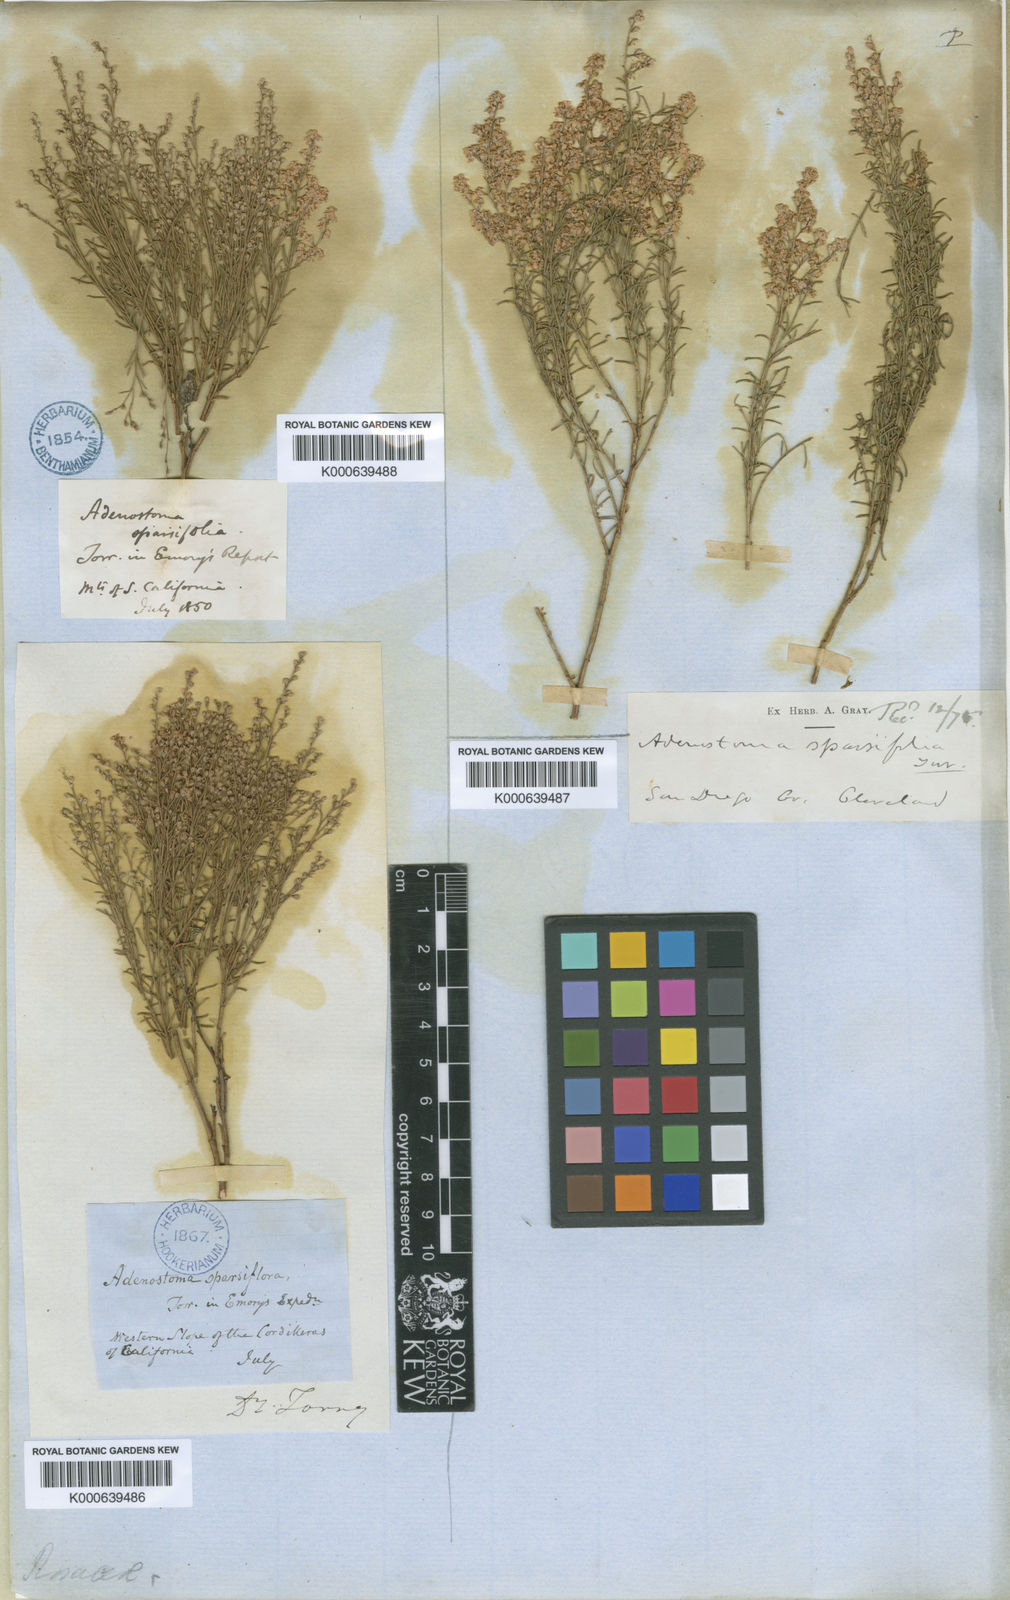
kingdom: Plantae
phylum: Tracheophyta
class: Magnoliopsida
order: Rosales
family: Rosaceae
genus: Adenostoma
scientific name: Adenostoma sparsifolium
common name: Red shank
